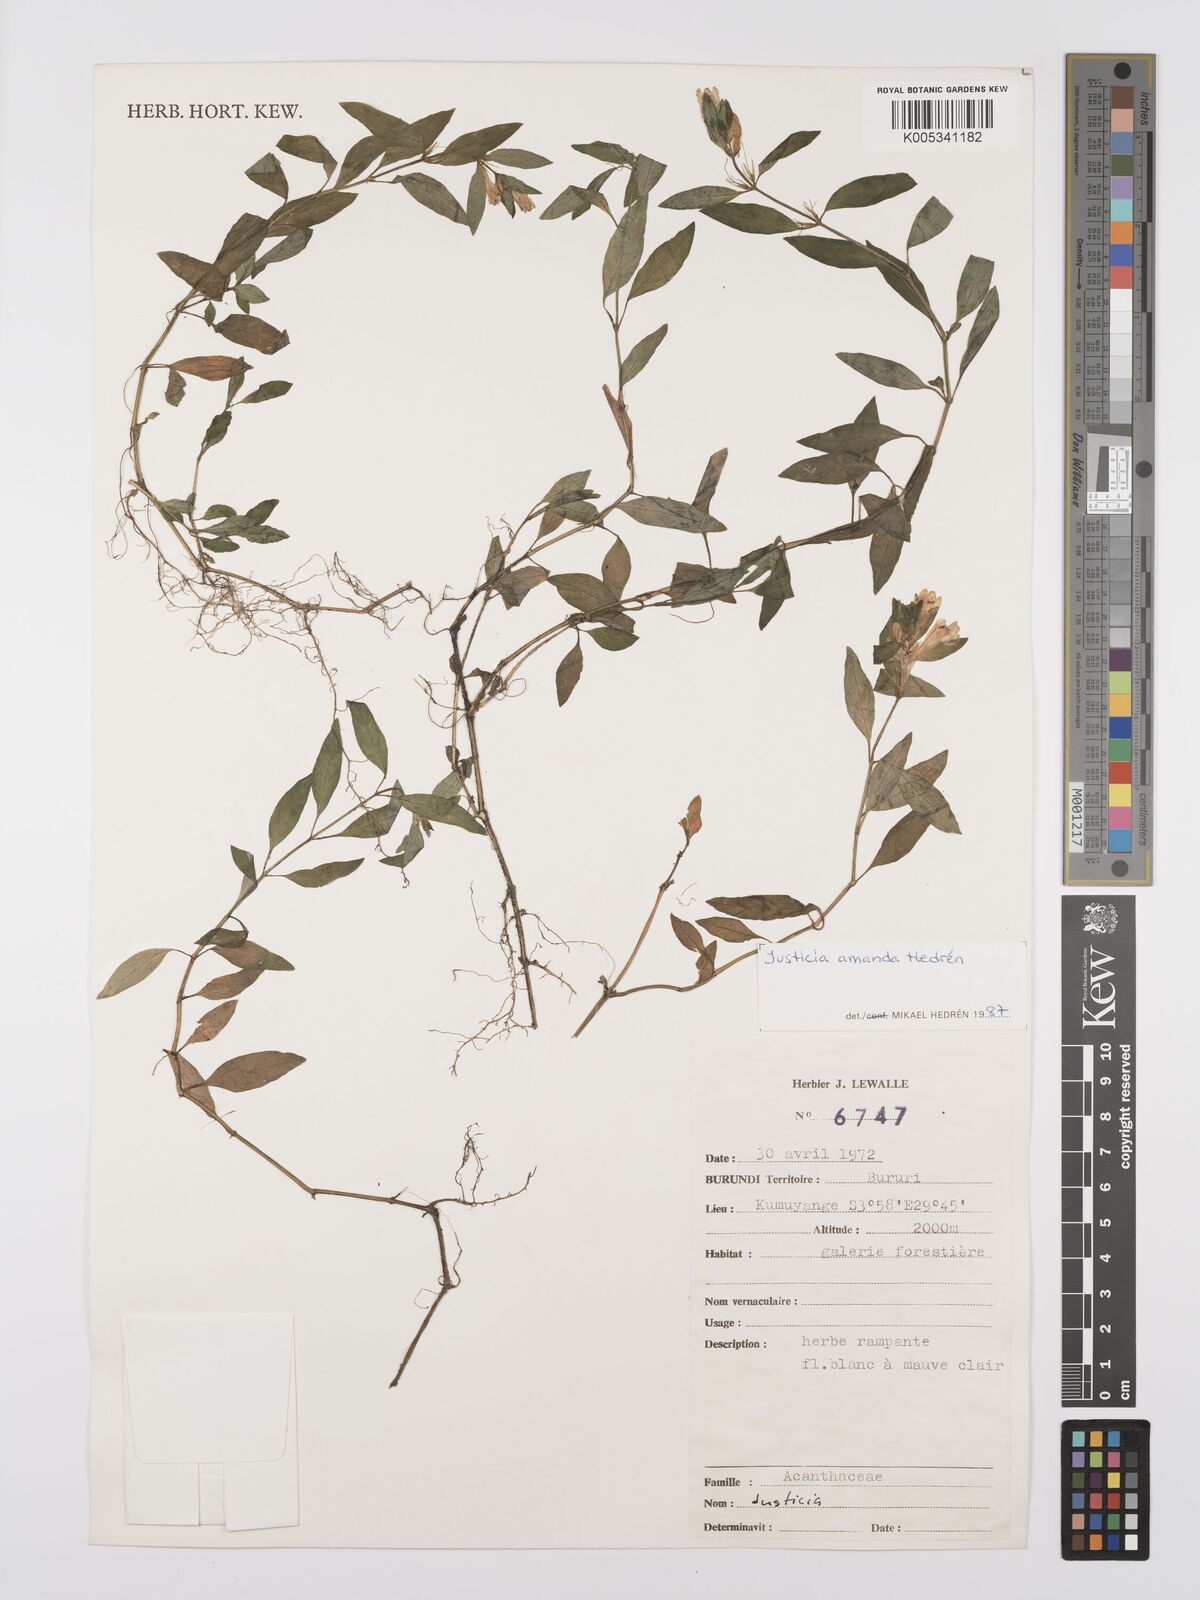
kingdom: Plantae
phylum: Tracheophyta
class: Magnoliopsida
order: Lamiales
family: Acanthaceae
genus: Justicia
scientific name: Justicia amanda
